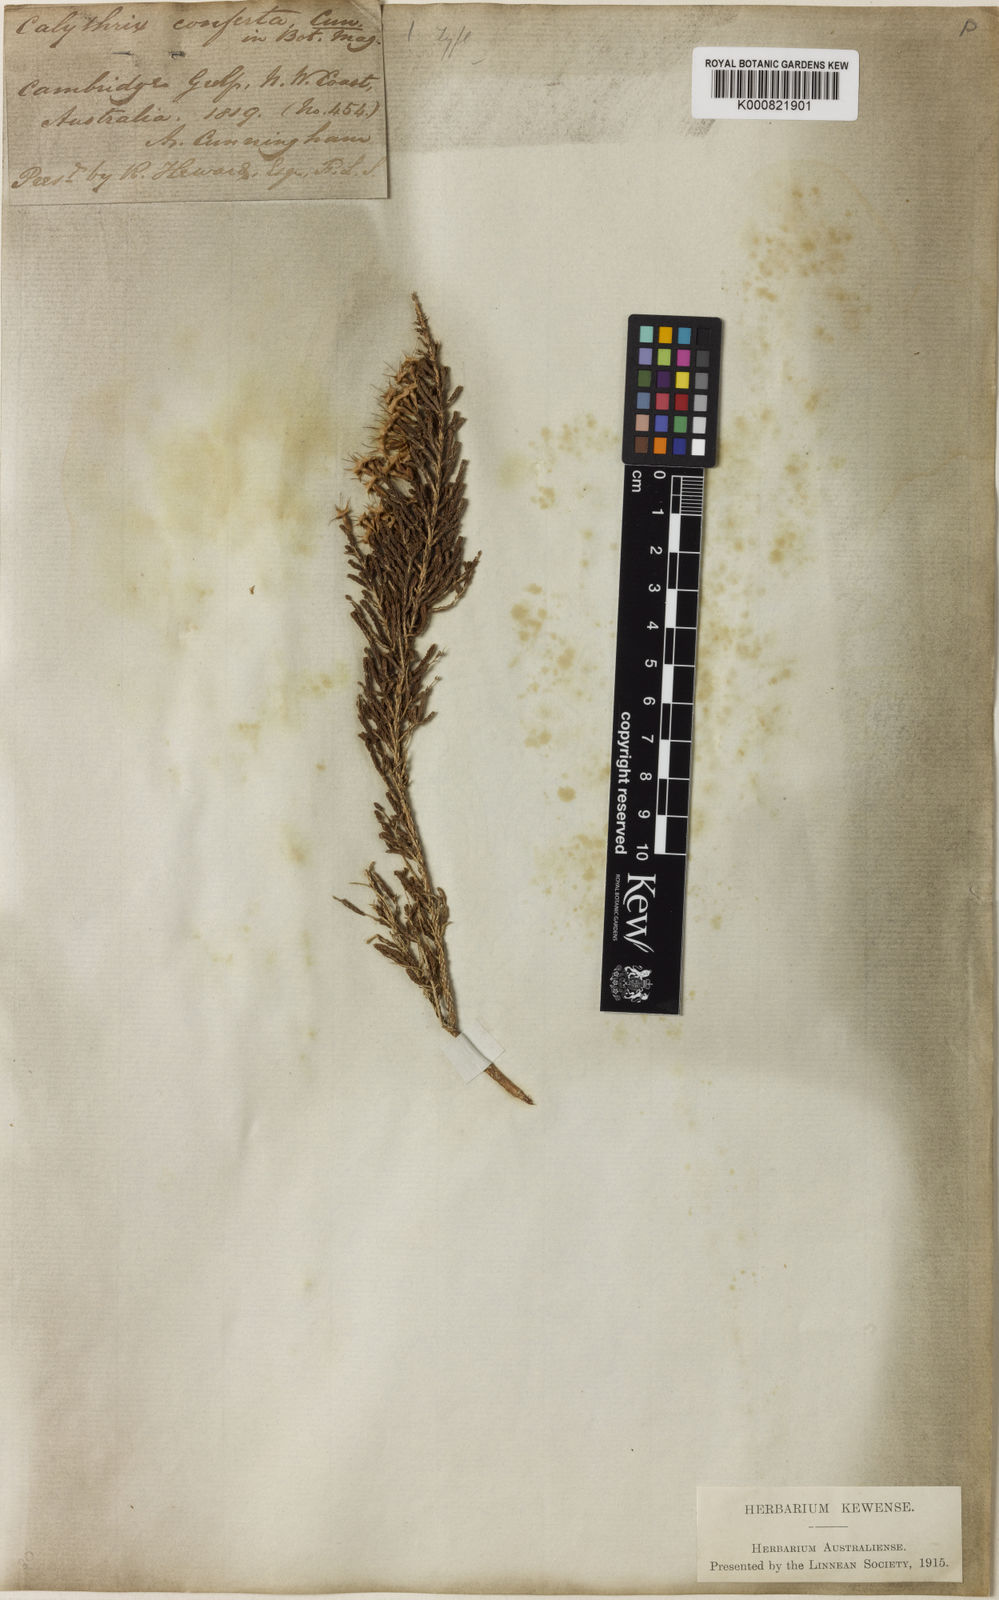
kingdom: Plantae
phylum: Tracheophyta
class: Magnoliopsida
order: Myrtales
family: Myrtaceae
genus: Calytrix
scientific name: Calytrix exstipulata
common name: Kimberley heather
